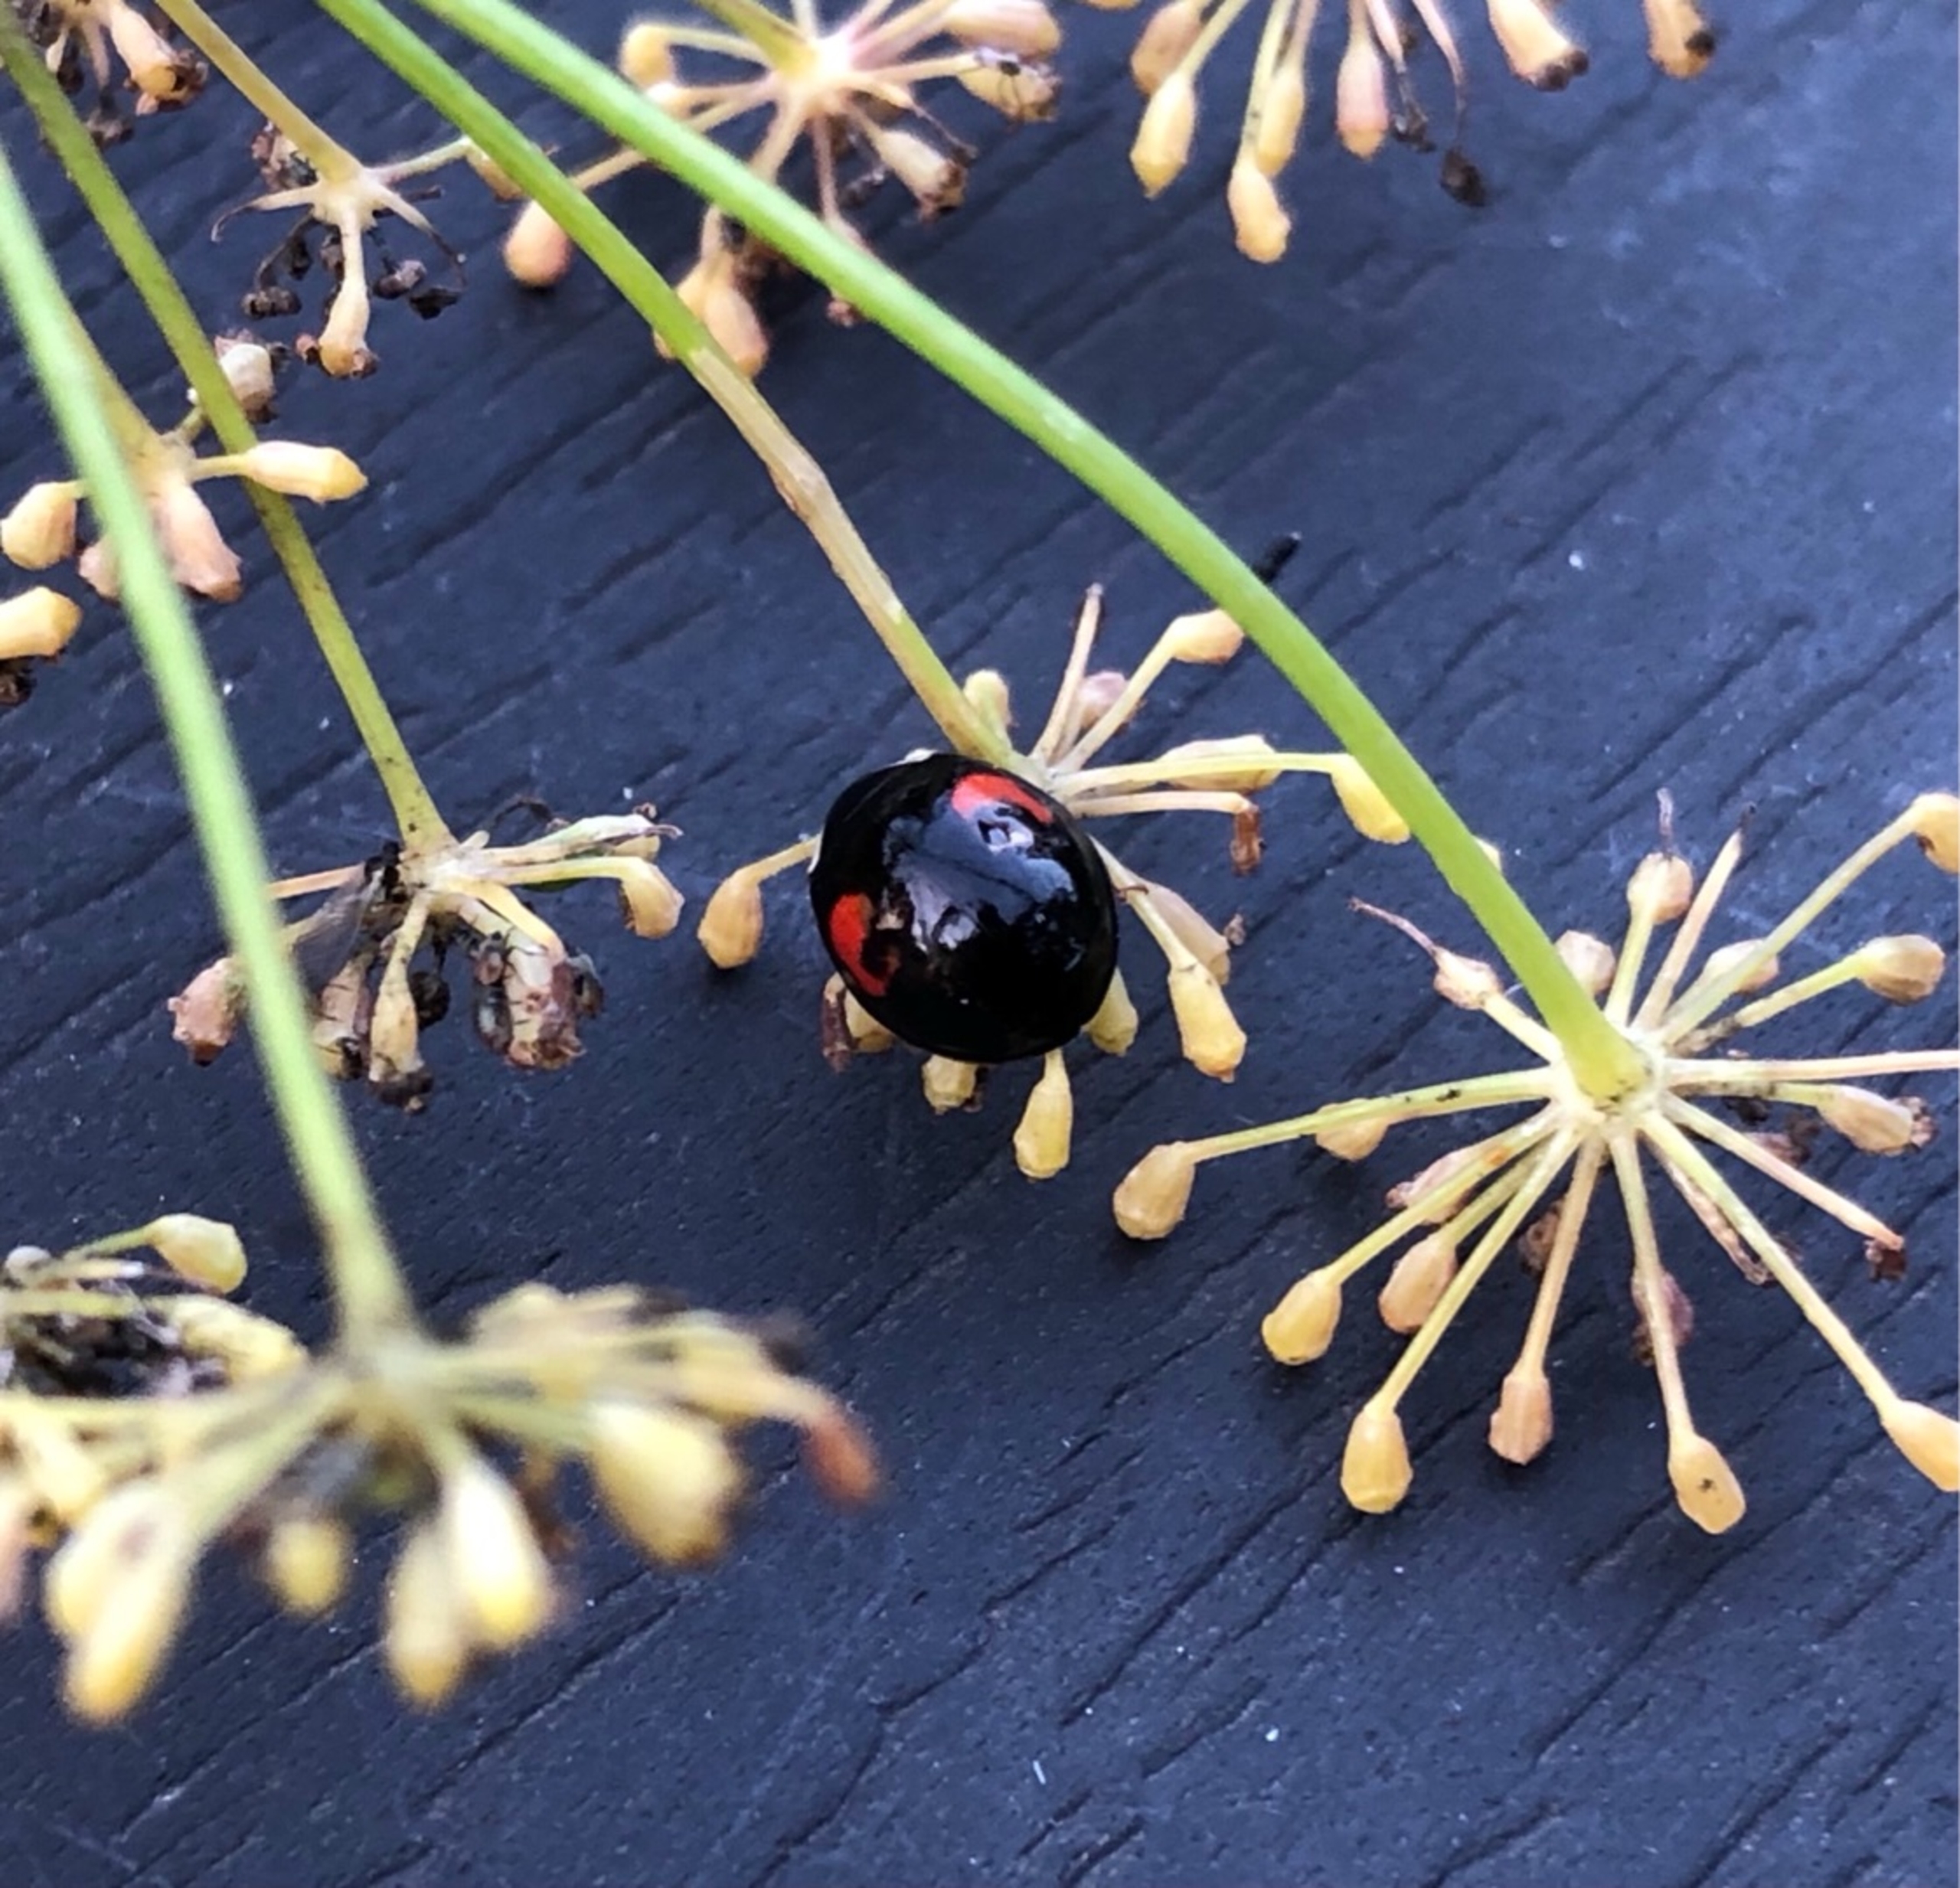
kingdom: Animalia
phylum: Arthropoda
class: Insecta
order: Coleoptera
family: Coccinellidae
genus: Harmonia
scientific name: Harmonia axyridis
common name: Harlekinmariehøne
